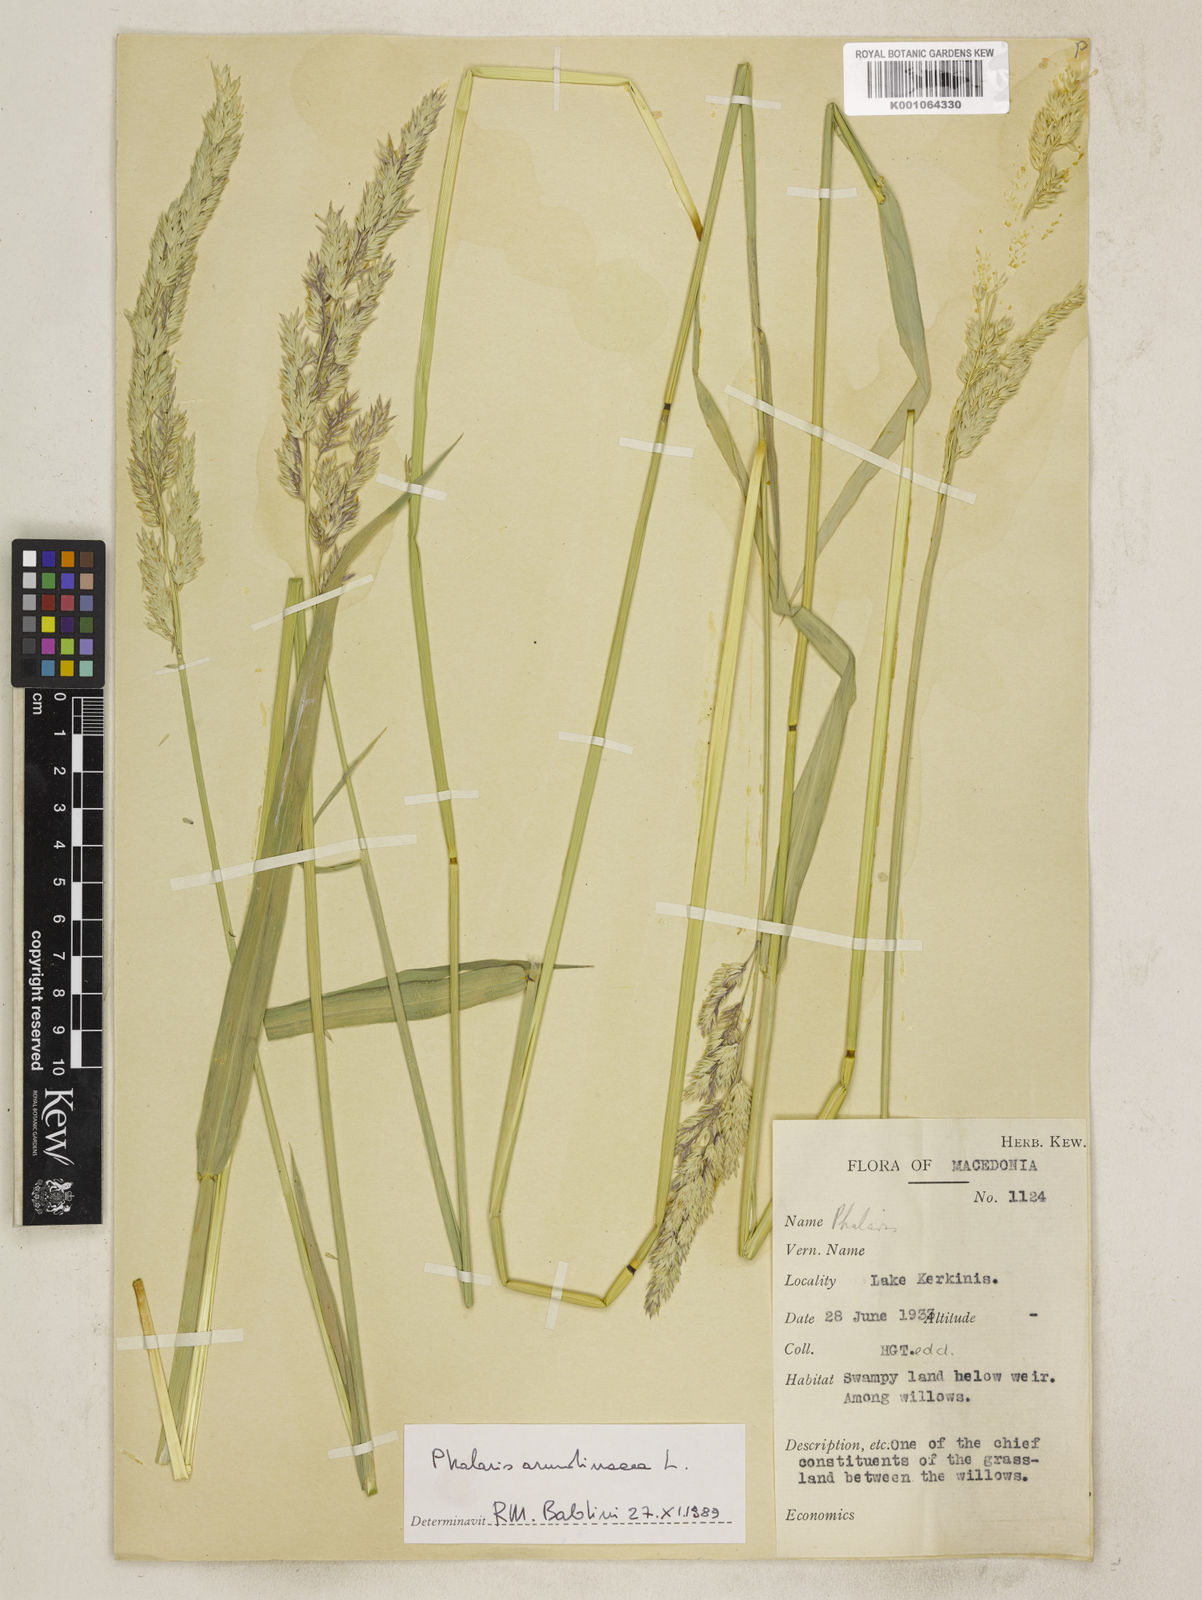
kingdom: Plantae
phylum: Tracheophyta
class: Liliopsida
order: Poales
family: Poaceae
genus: Phalaris
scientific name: Phalaris arundinacea
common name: Reed canary-grass
